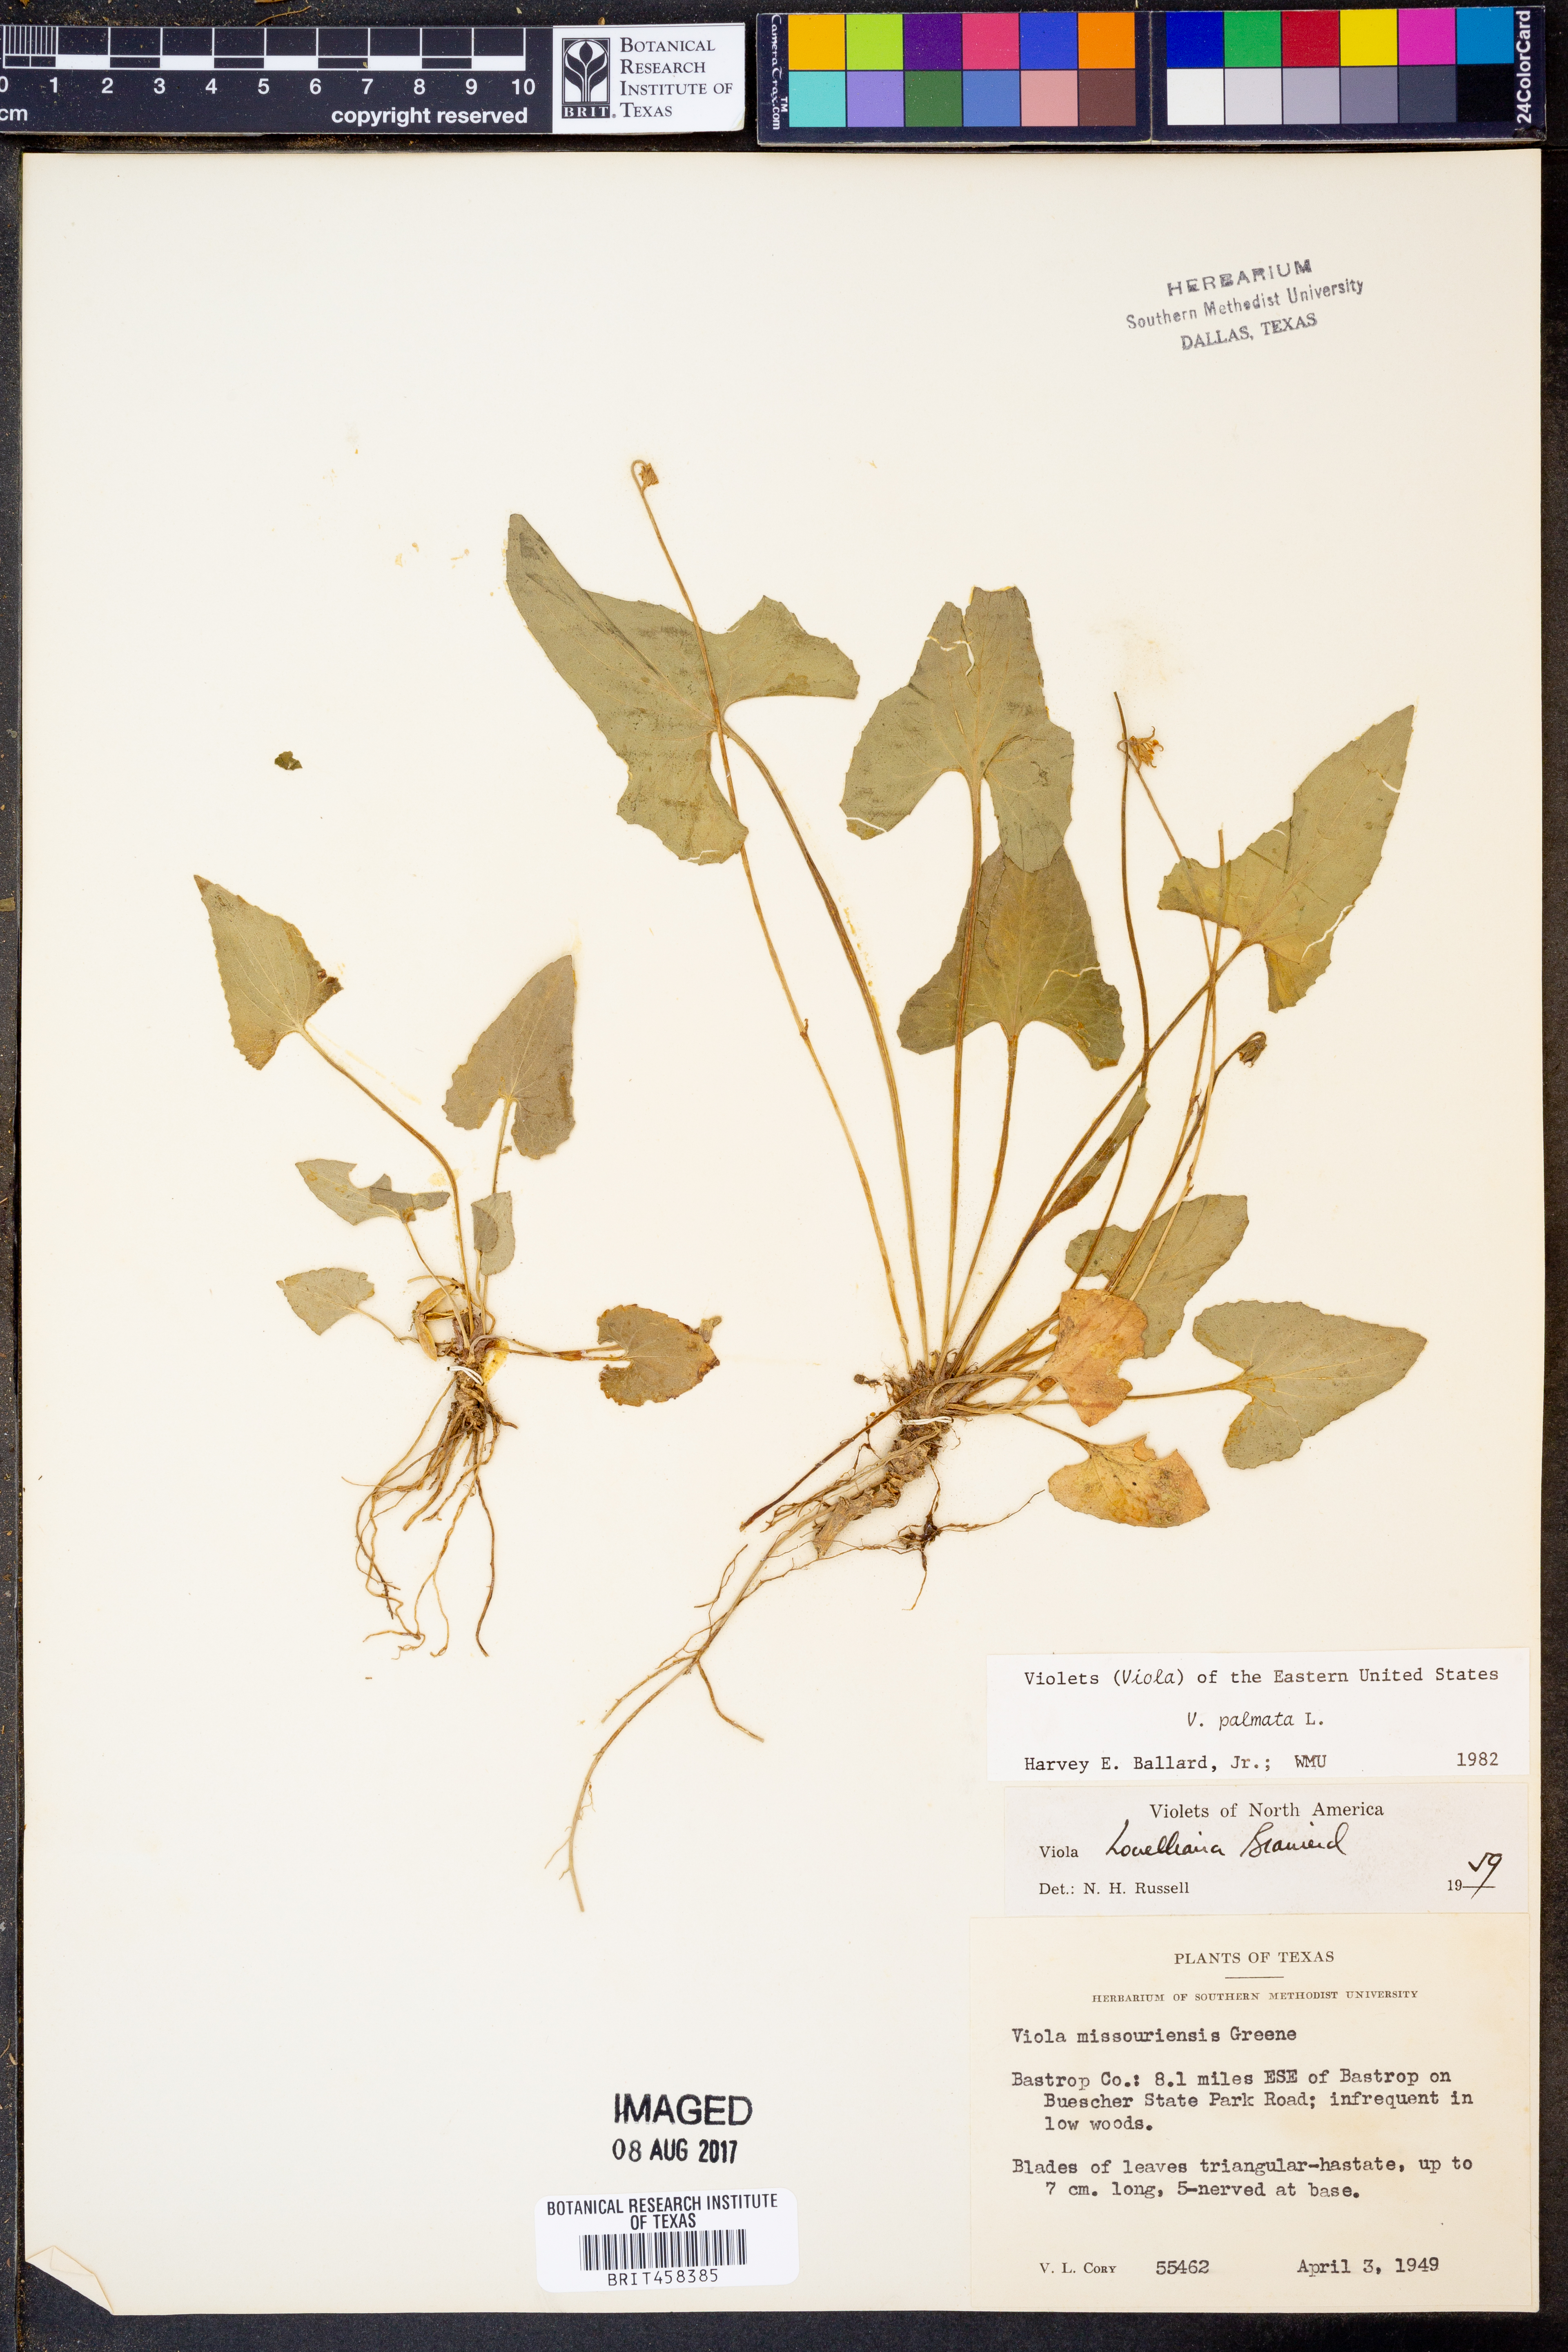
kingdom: Plantae
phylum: Tracheophyta
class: Magnoliopsida
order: Malpighiales
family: Violaceae
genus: Viola
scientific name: Viola palmata
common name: Early blue violet
